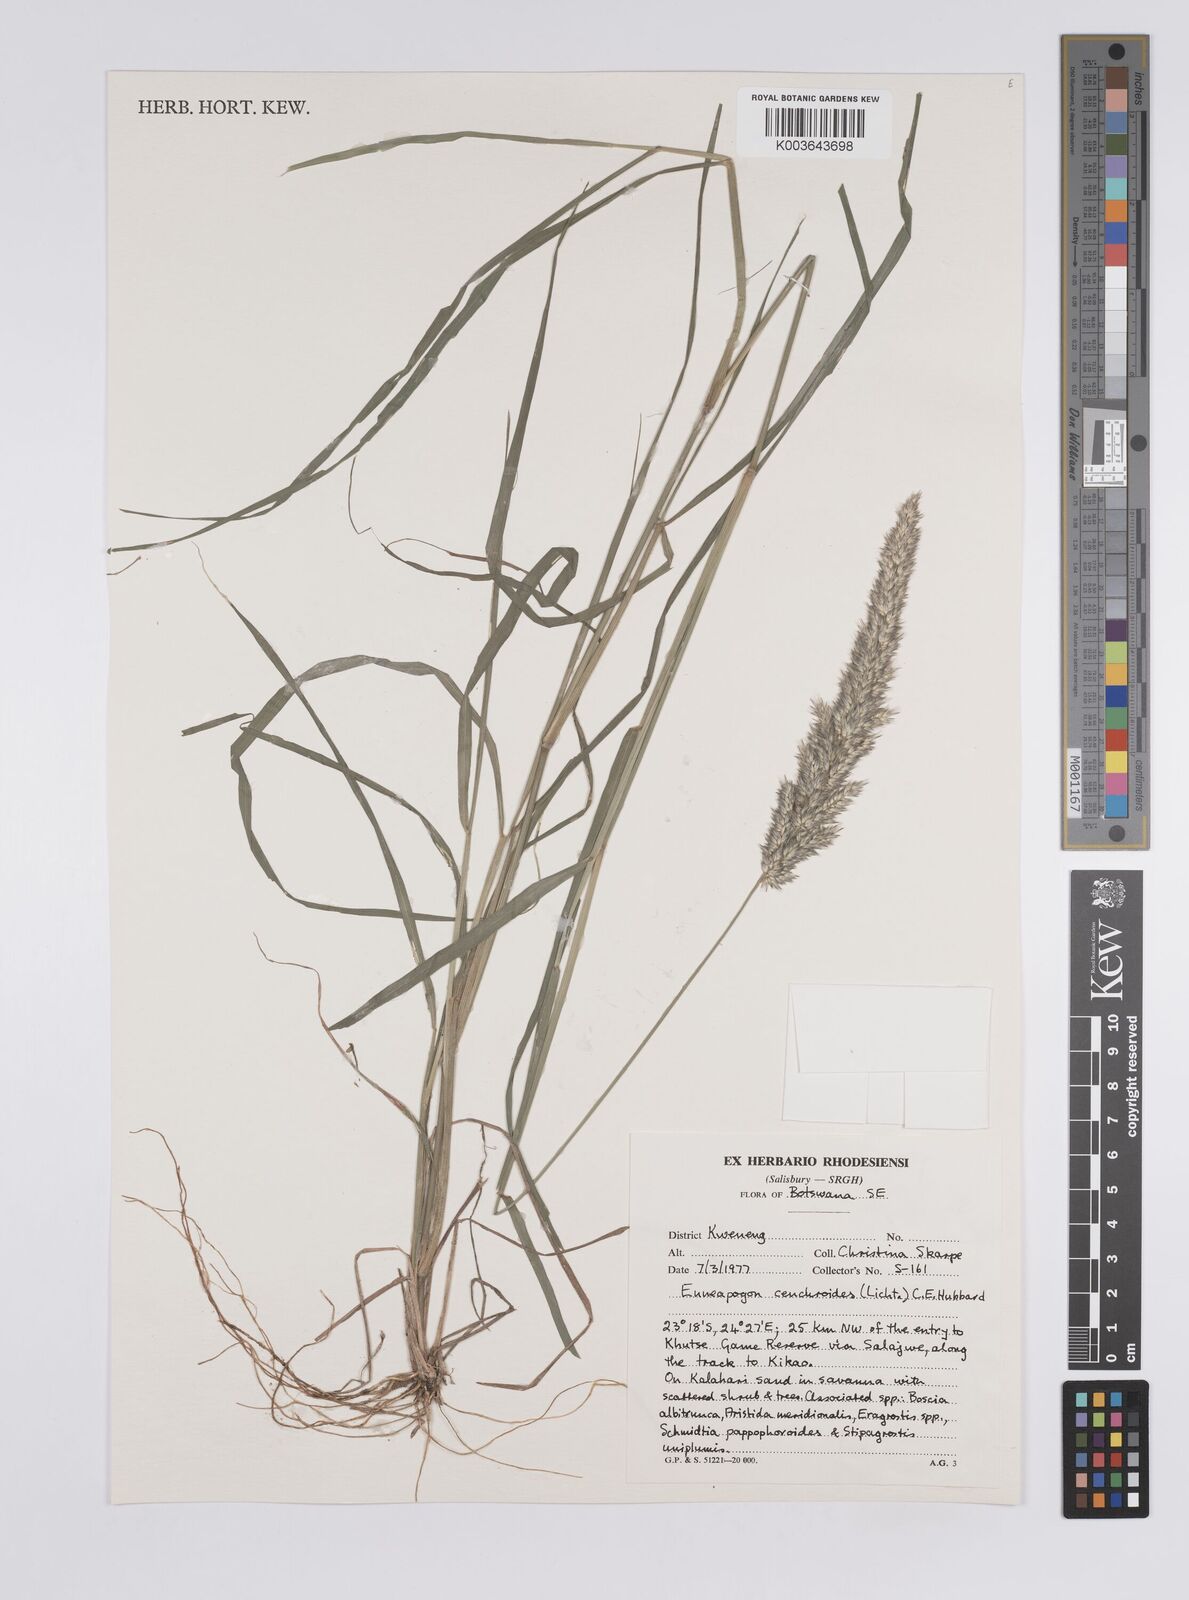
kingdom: Plantae
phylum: Tracheophyta
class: Liliopsida
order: Poales
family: Poaceae
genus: Enneapogon
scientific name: Enneapogon cenchroides
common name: Soft feather pappusgrass
